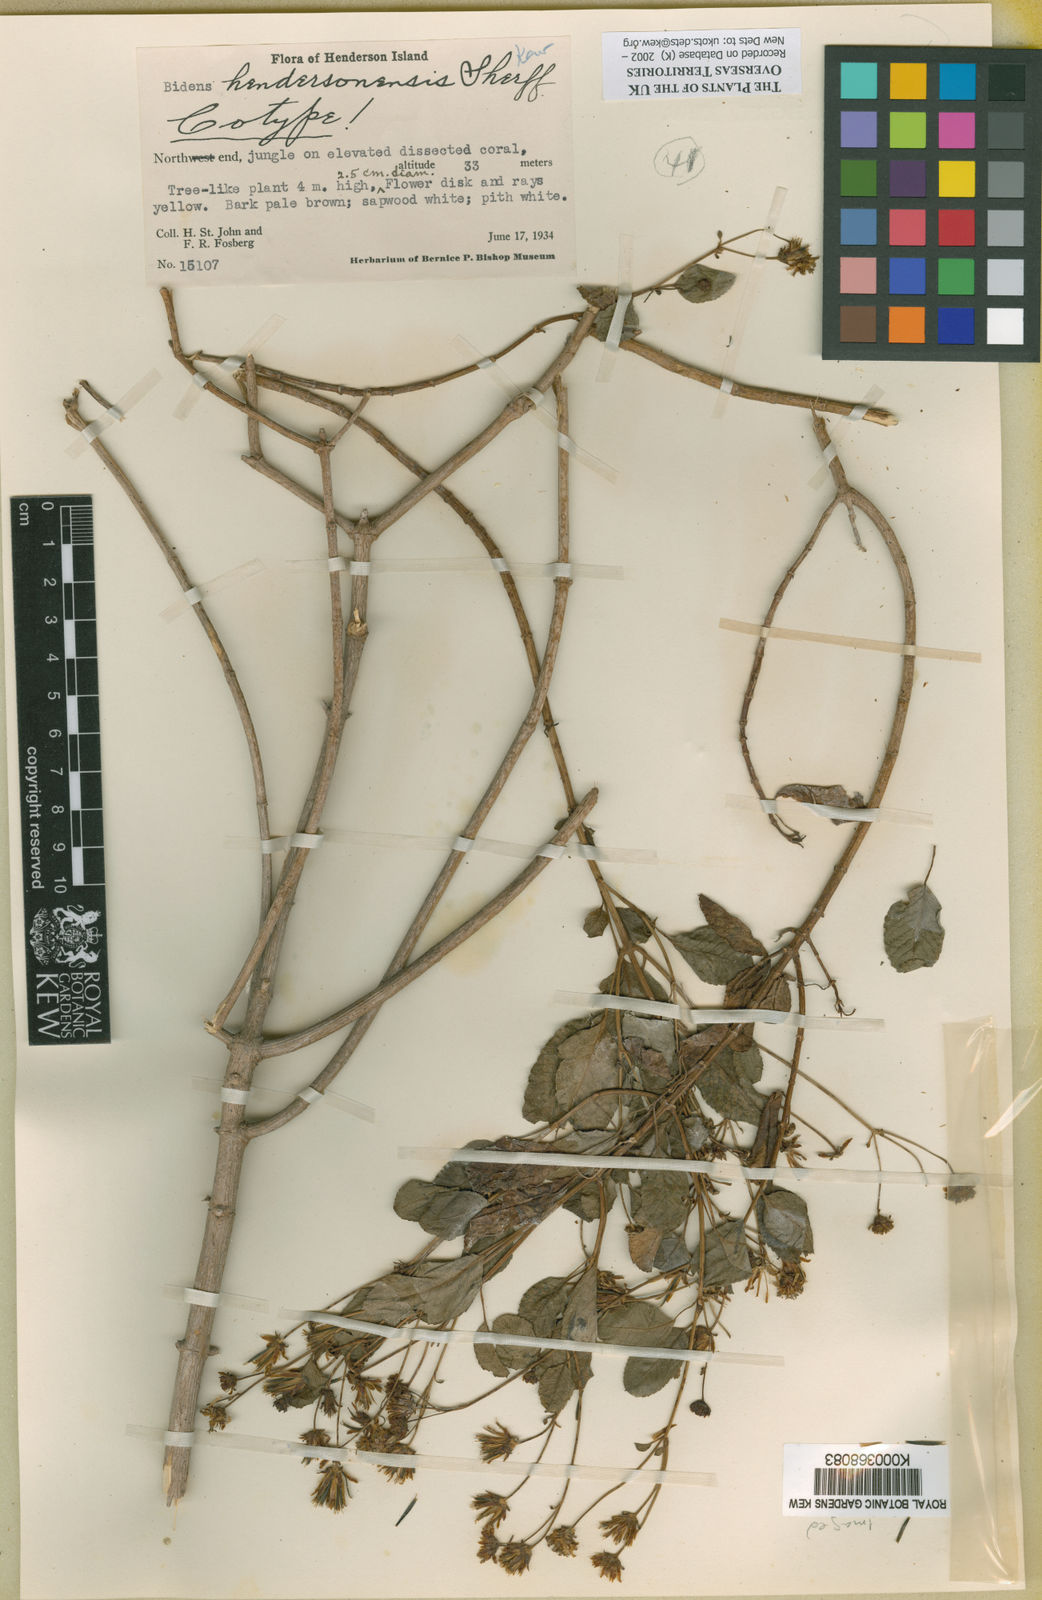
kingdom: Plantae
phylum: Tracheophyta
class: Magnoliopsida
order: Asterales
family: Asteraceae
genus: Bidens
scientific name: Bidens hendersonensis
